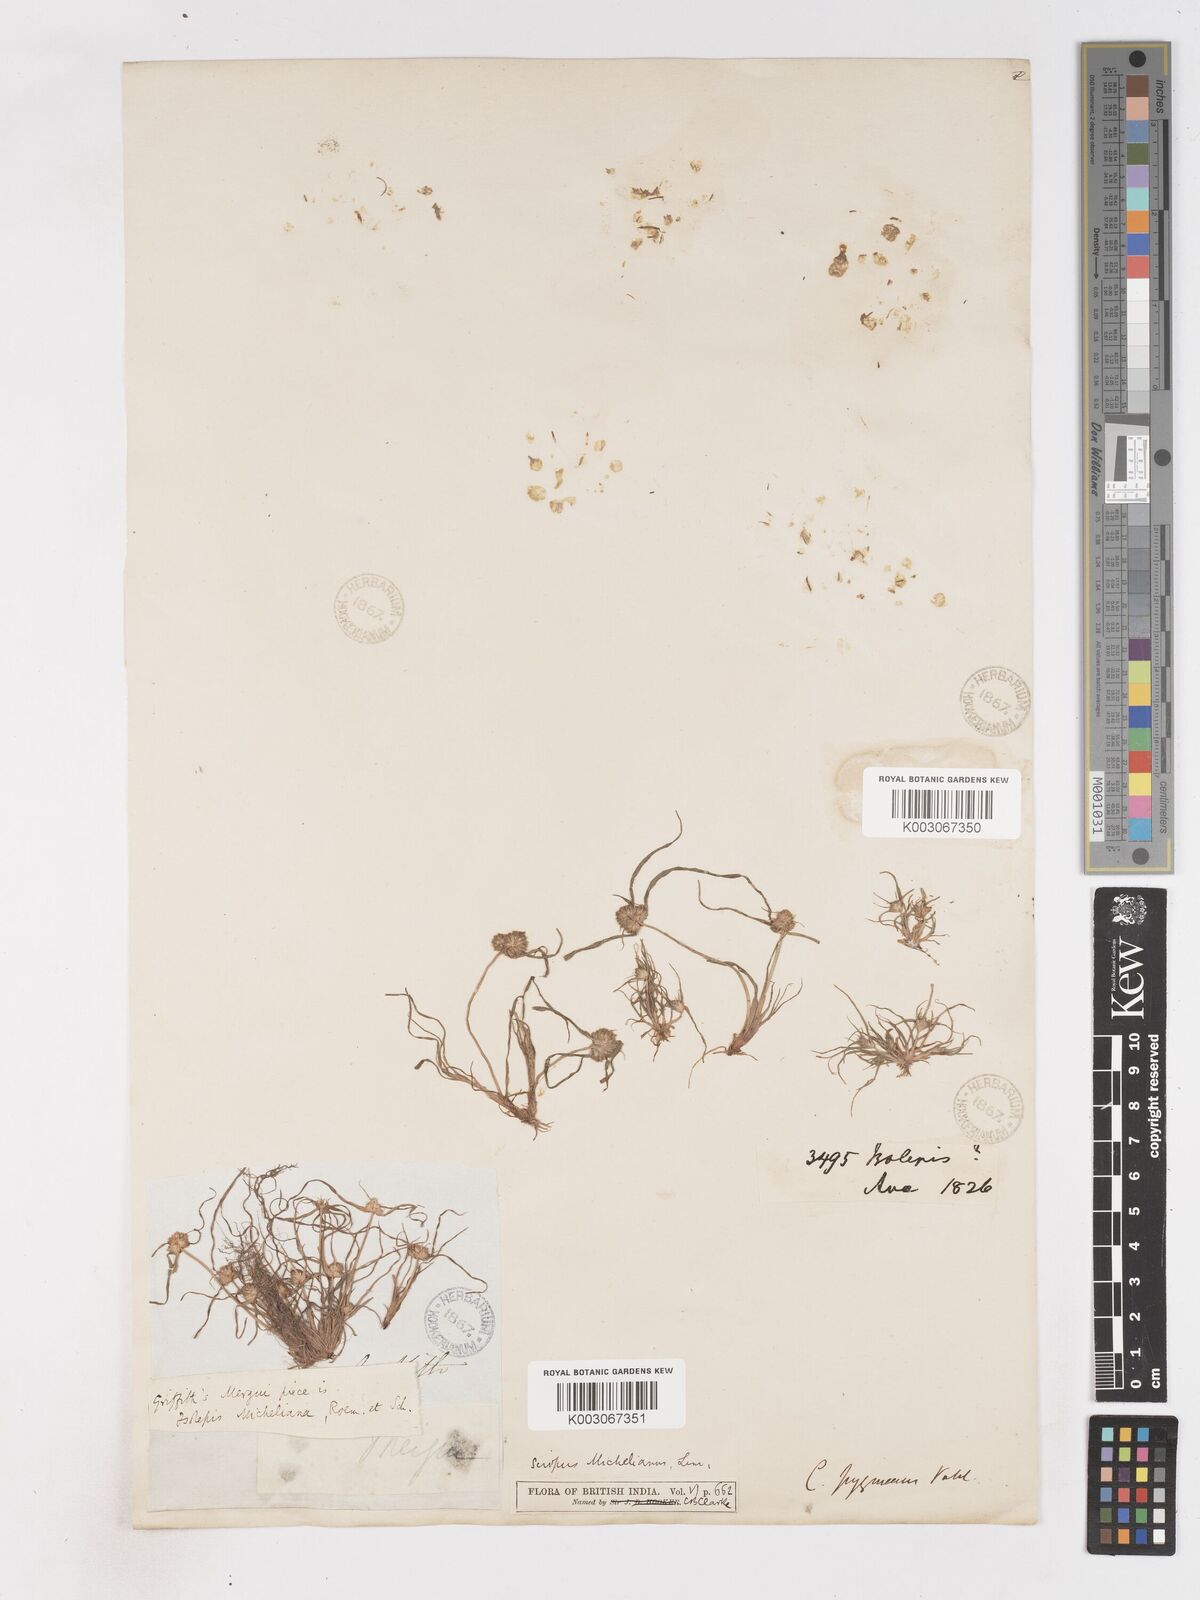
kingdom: Plantae
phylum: Tracheophyta
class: Liliopsida
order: Poales
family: Cyperaceae
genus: Cyperus
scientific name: Cyperus michelianus
